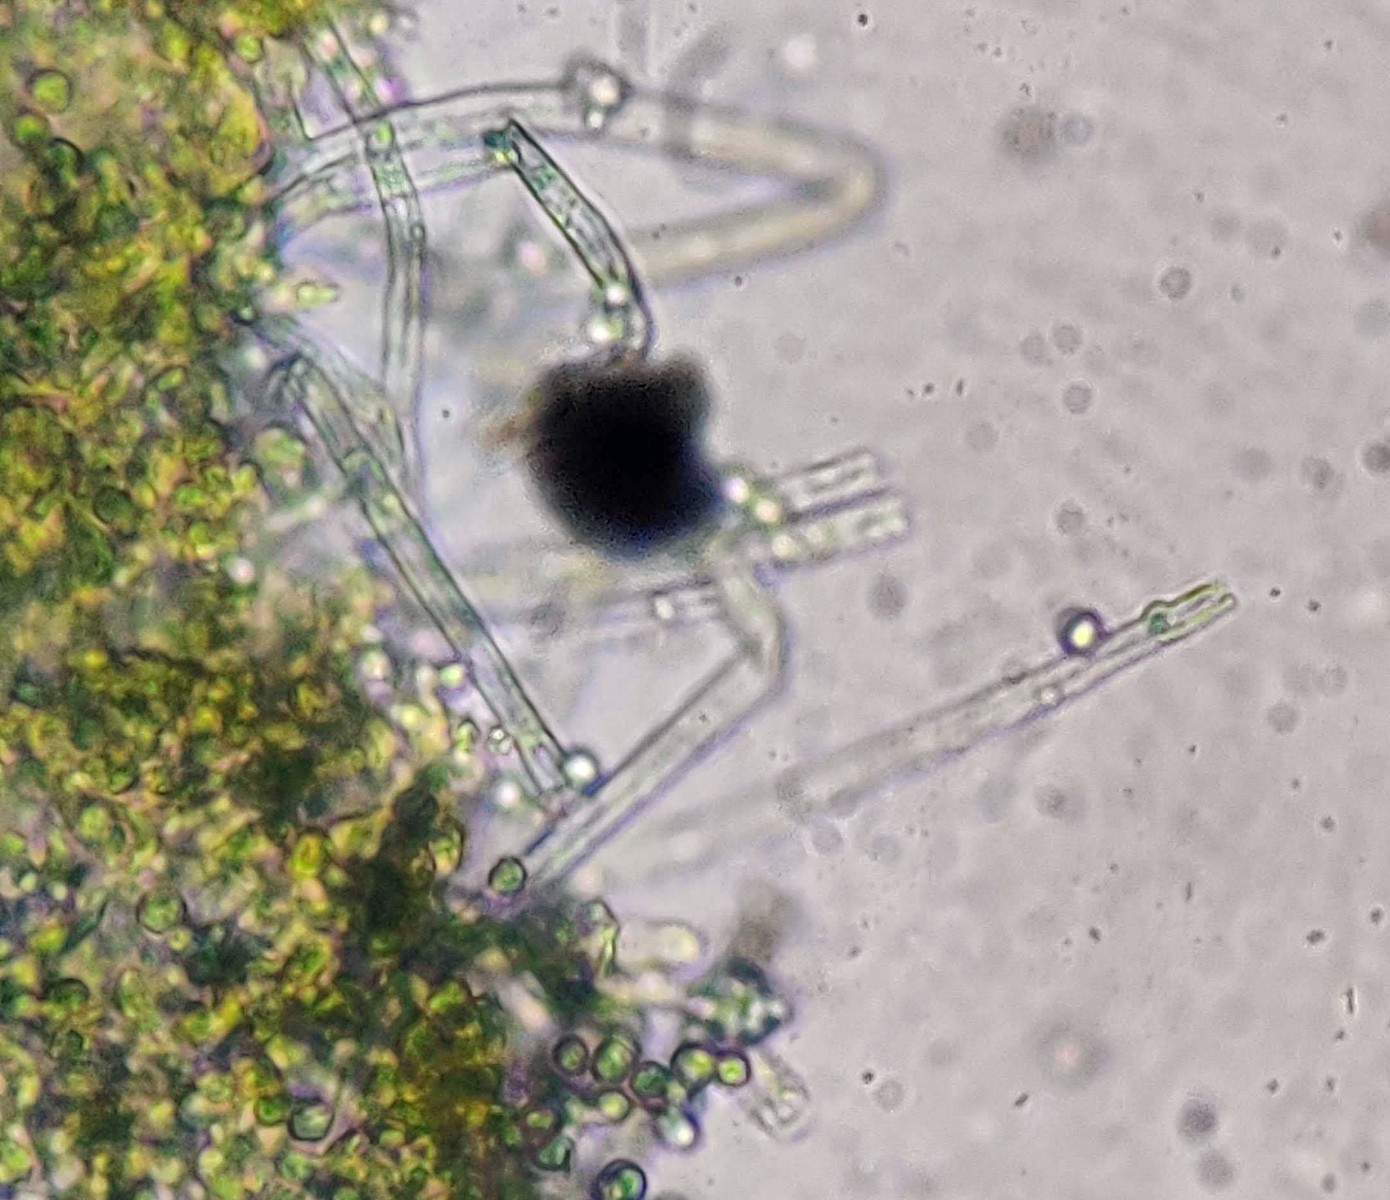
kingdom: Fungi
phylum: Basidiomycota
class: Agaricomycetes
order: Atheliales
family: Atheliaceae
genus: Byssocorticium
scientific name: Byssocorticium atrovirens
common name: blå førnehinde
